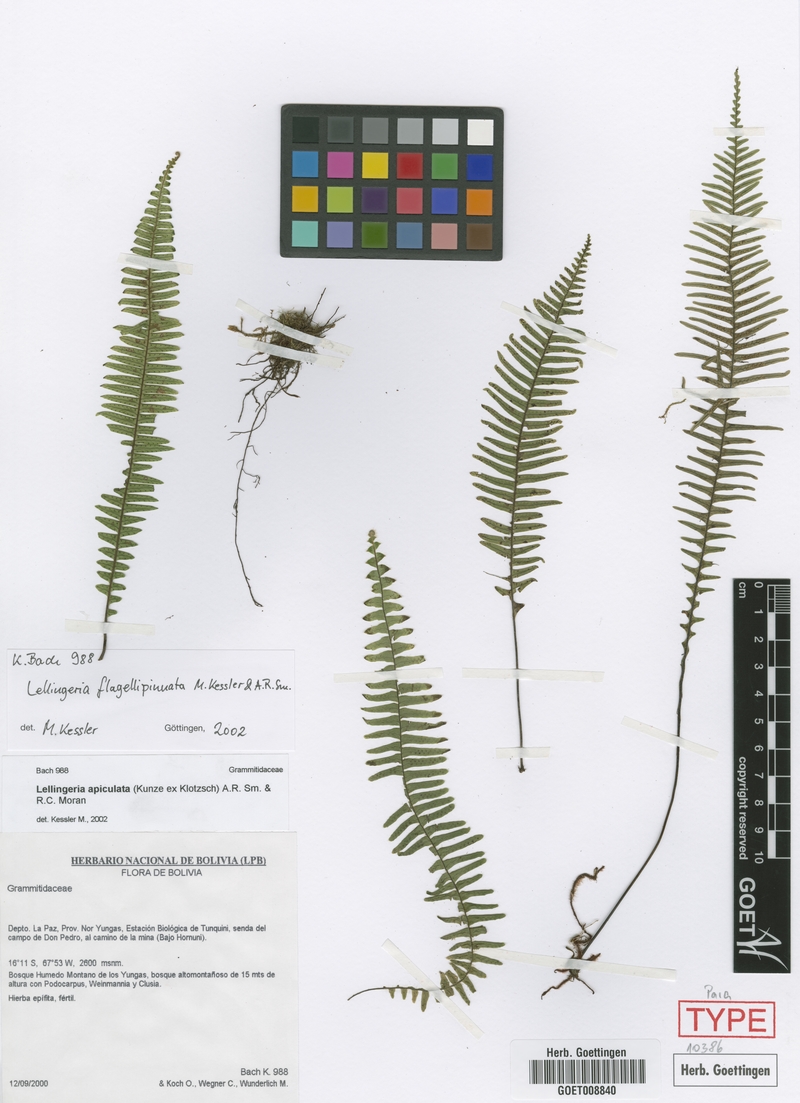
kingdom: Plantae
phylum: Tracheophyta
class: Polypodiopsida
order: Polypodiales
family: Polypodiaceae
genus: Lellingeria
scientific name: Lellingeria flagellipinnata
